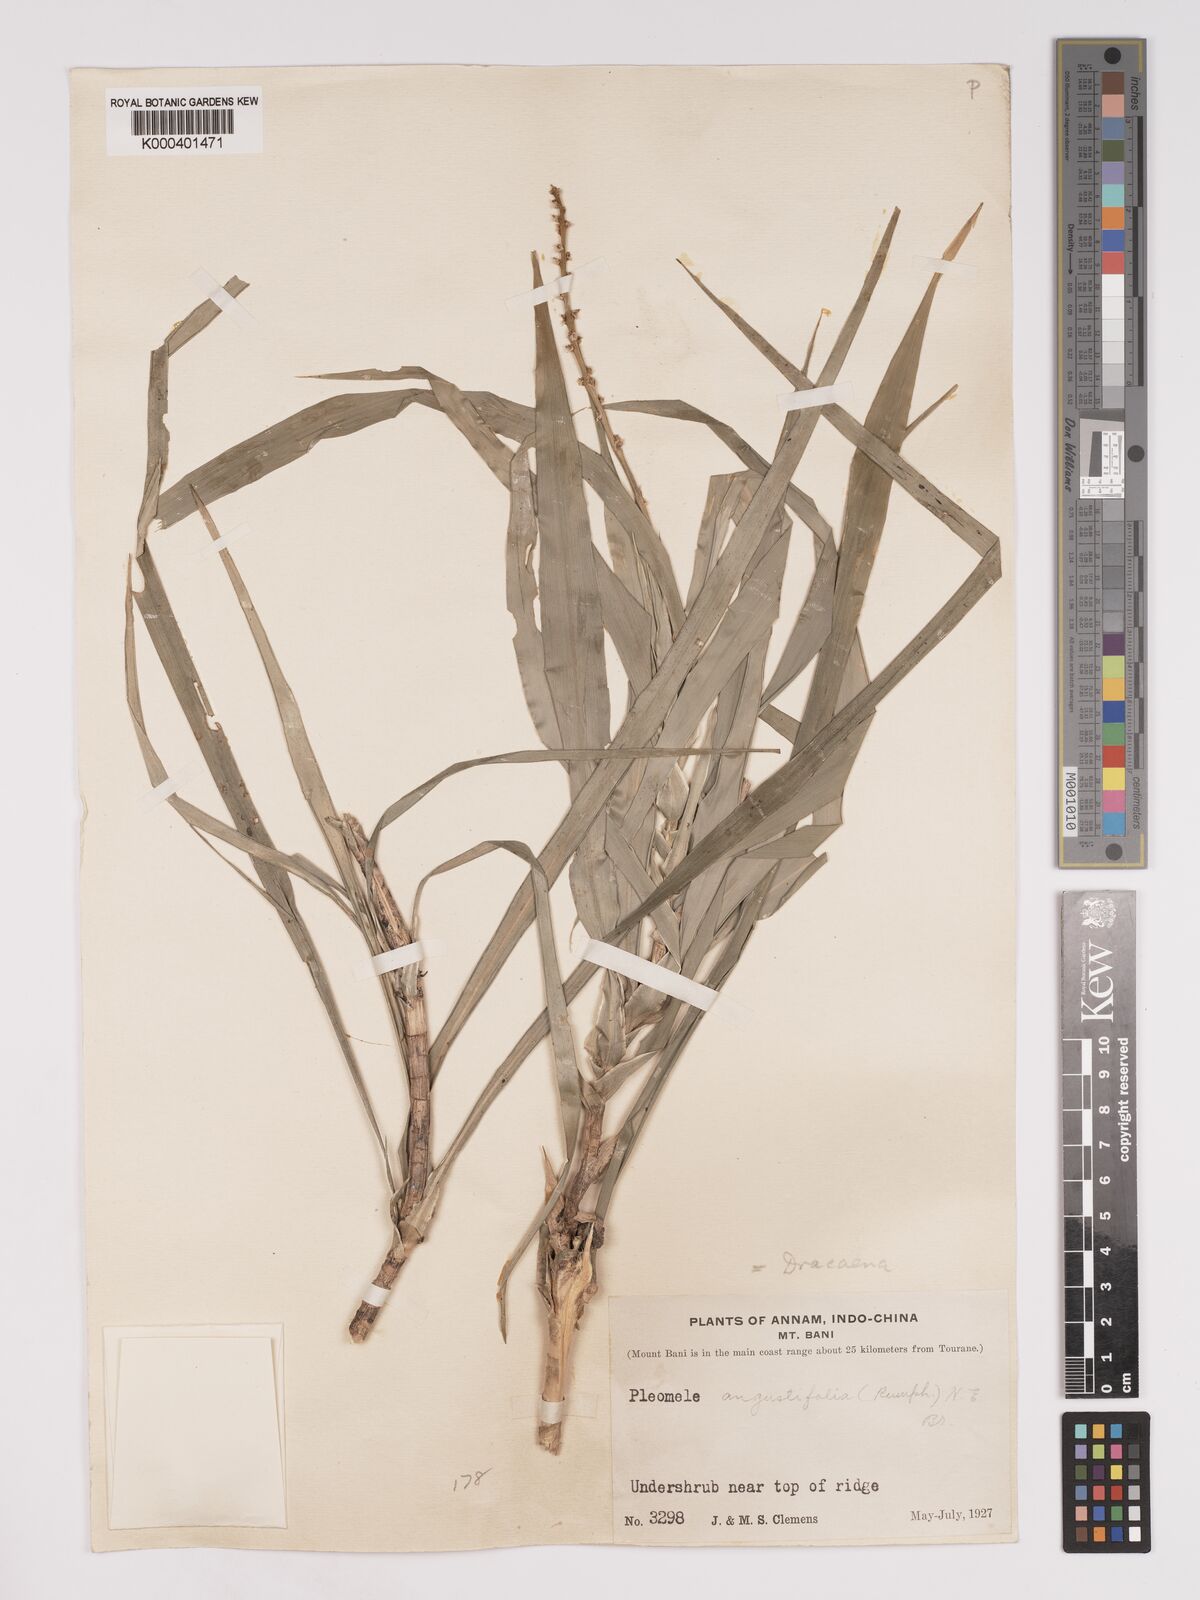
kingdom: Plantae
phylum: Tracheophyta
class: Liliopsida
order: Asparagales
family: Asparagaceae
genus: Dracaena
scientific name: Dracaena
